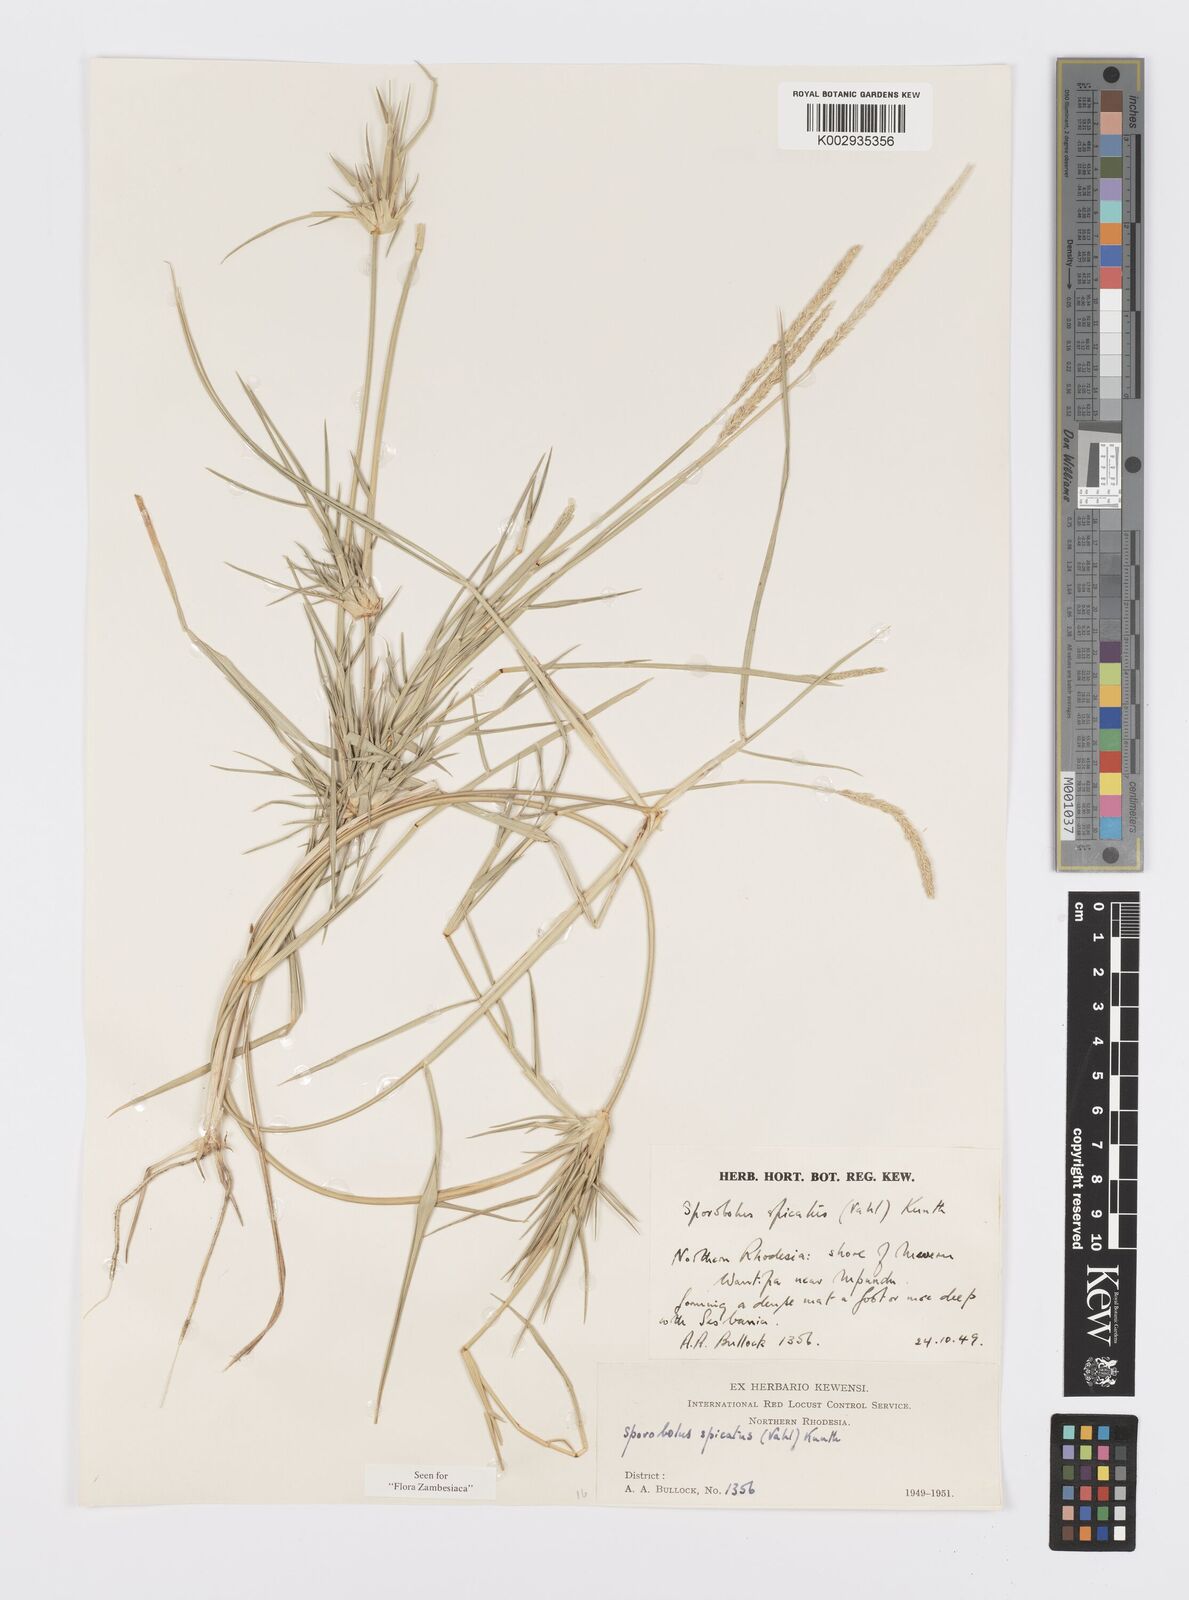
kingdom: Plantae
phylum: Tracheophyta
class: Liliopsida
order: Poales
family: Poaceae
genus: Sporobolus
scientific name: Sporobolus spicatus
